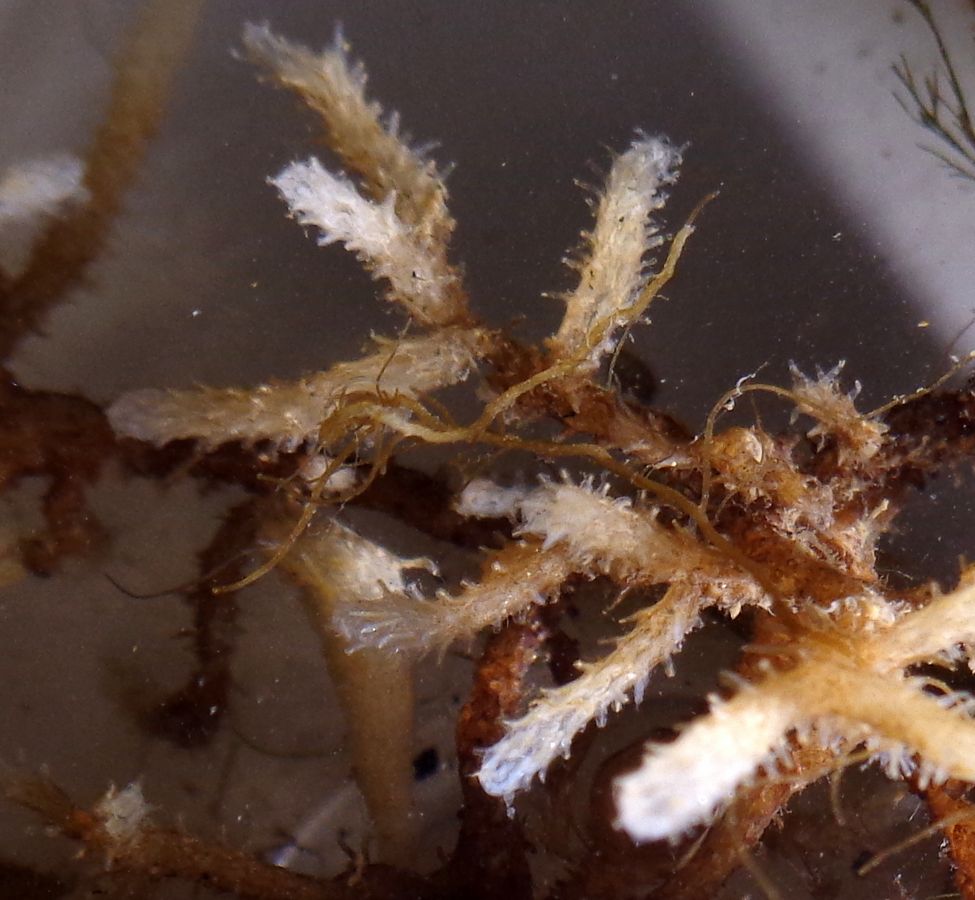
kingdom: Animalia
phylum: Bryozoa
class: Gymnolaemata
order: Ctenostomatida
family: Alcyonidiidae
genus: Alcyonidium
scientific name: Alcyonidium gelatinosum
